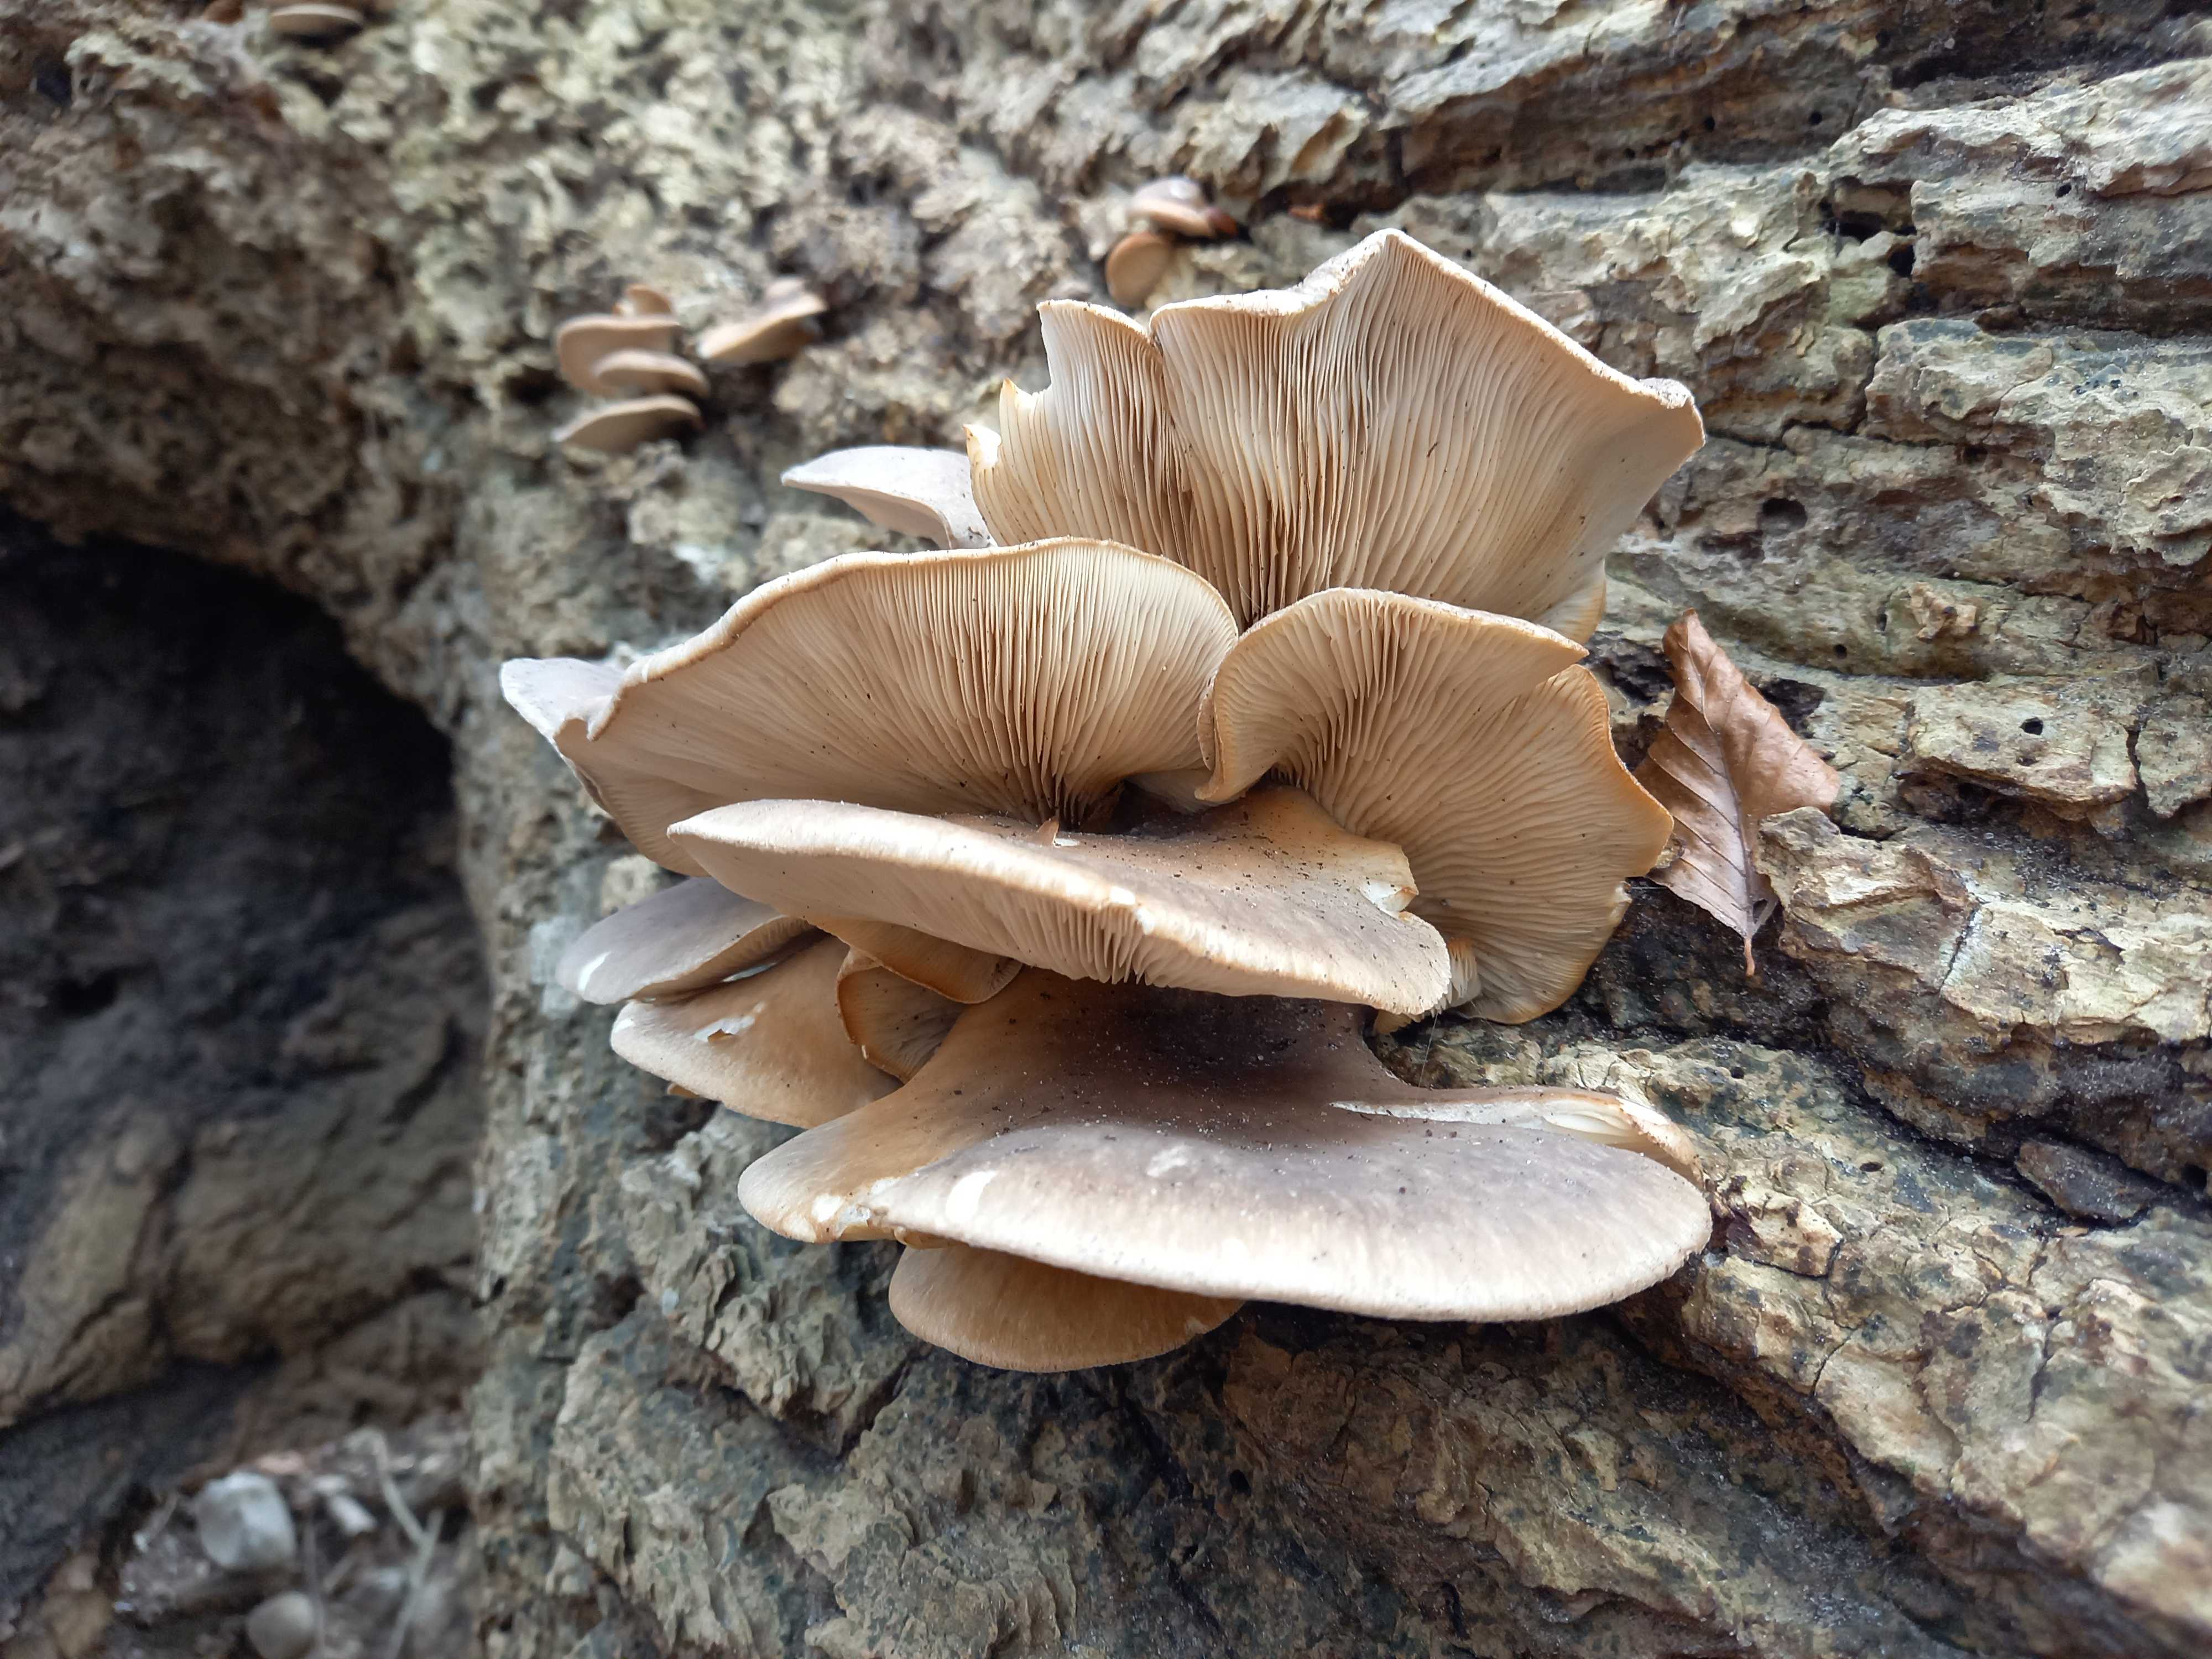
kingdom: Fungi
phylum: Basidiomycota
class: Agaricomycetes
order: Agaricales
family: Pleurotaceae
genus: Pleurotus
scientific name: Pleurotus ostreatus
